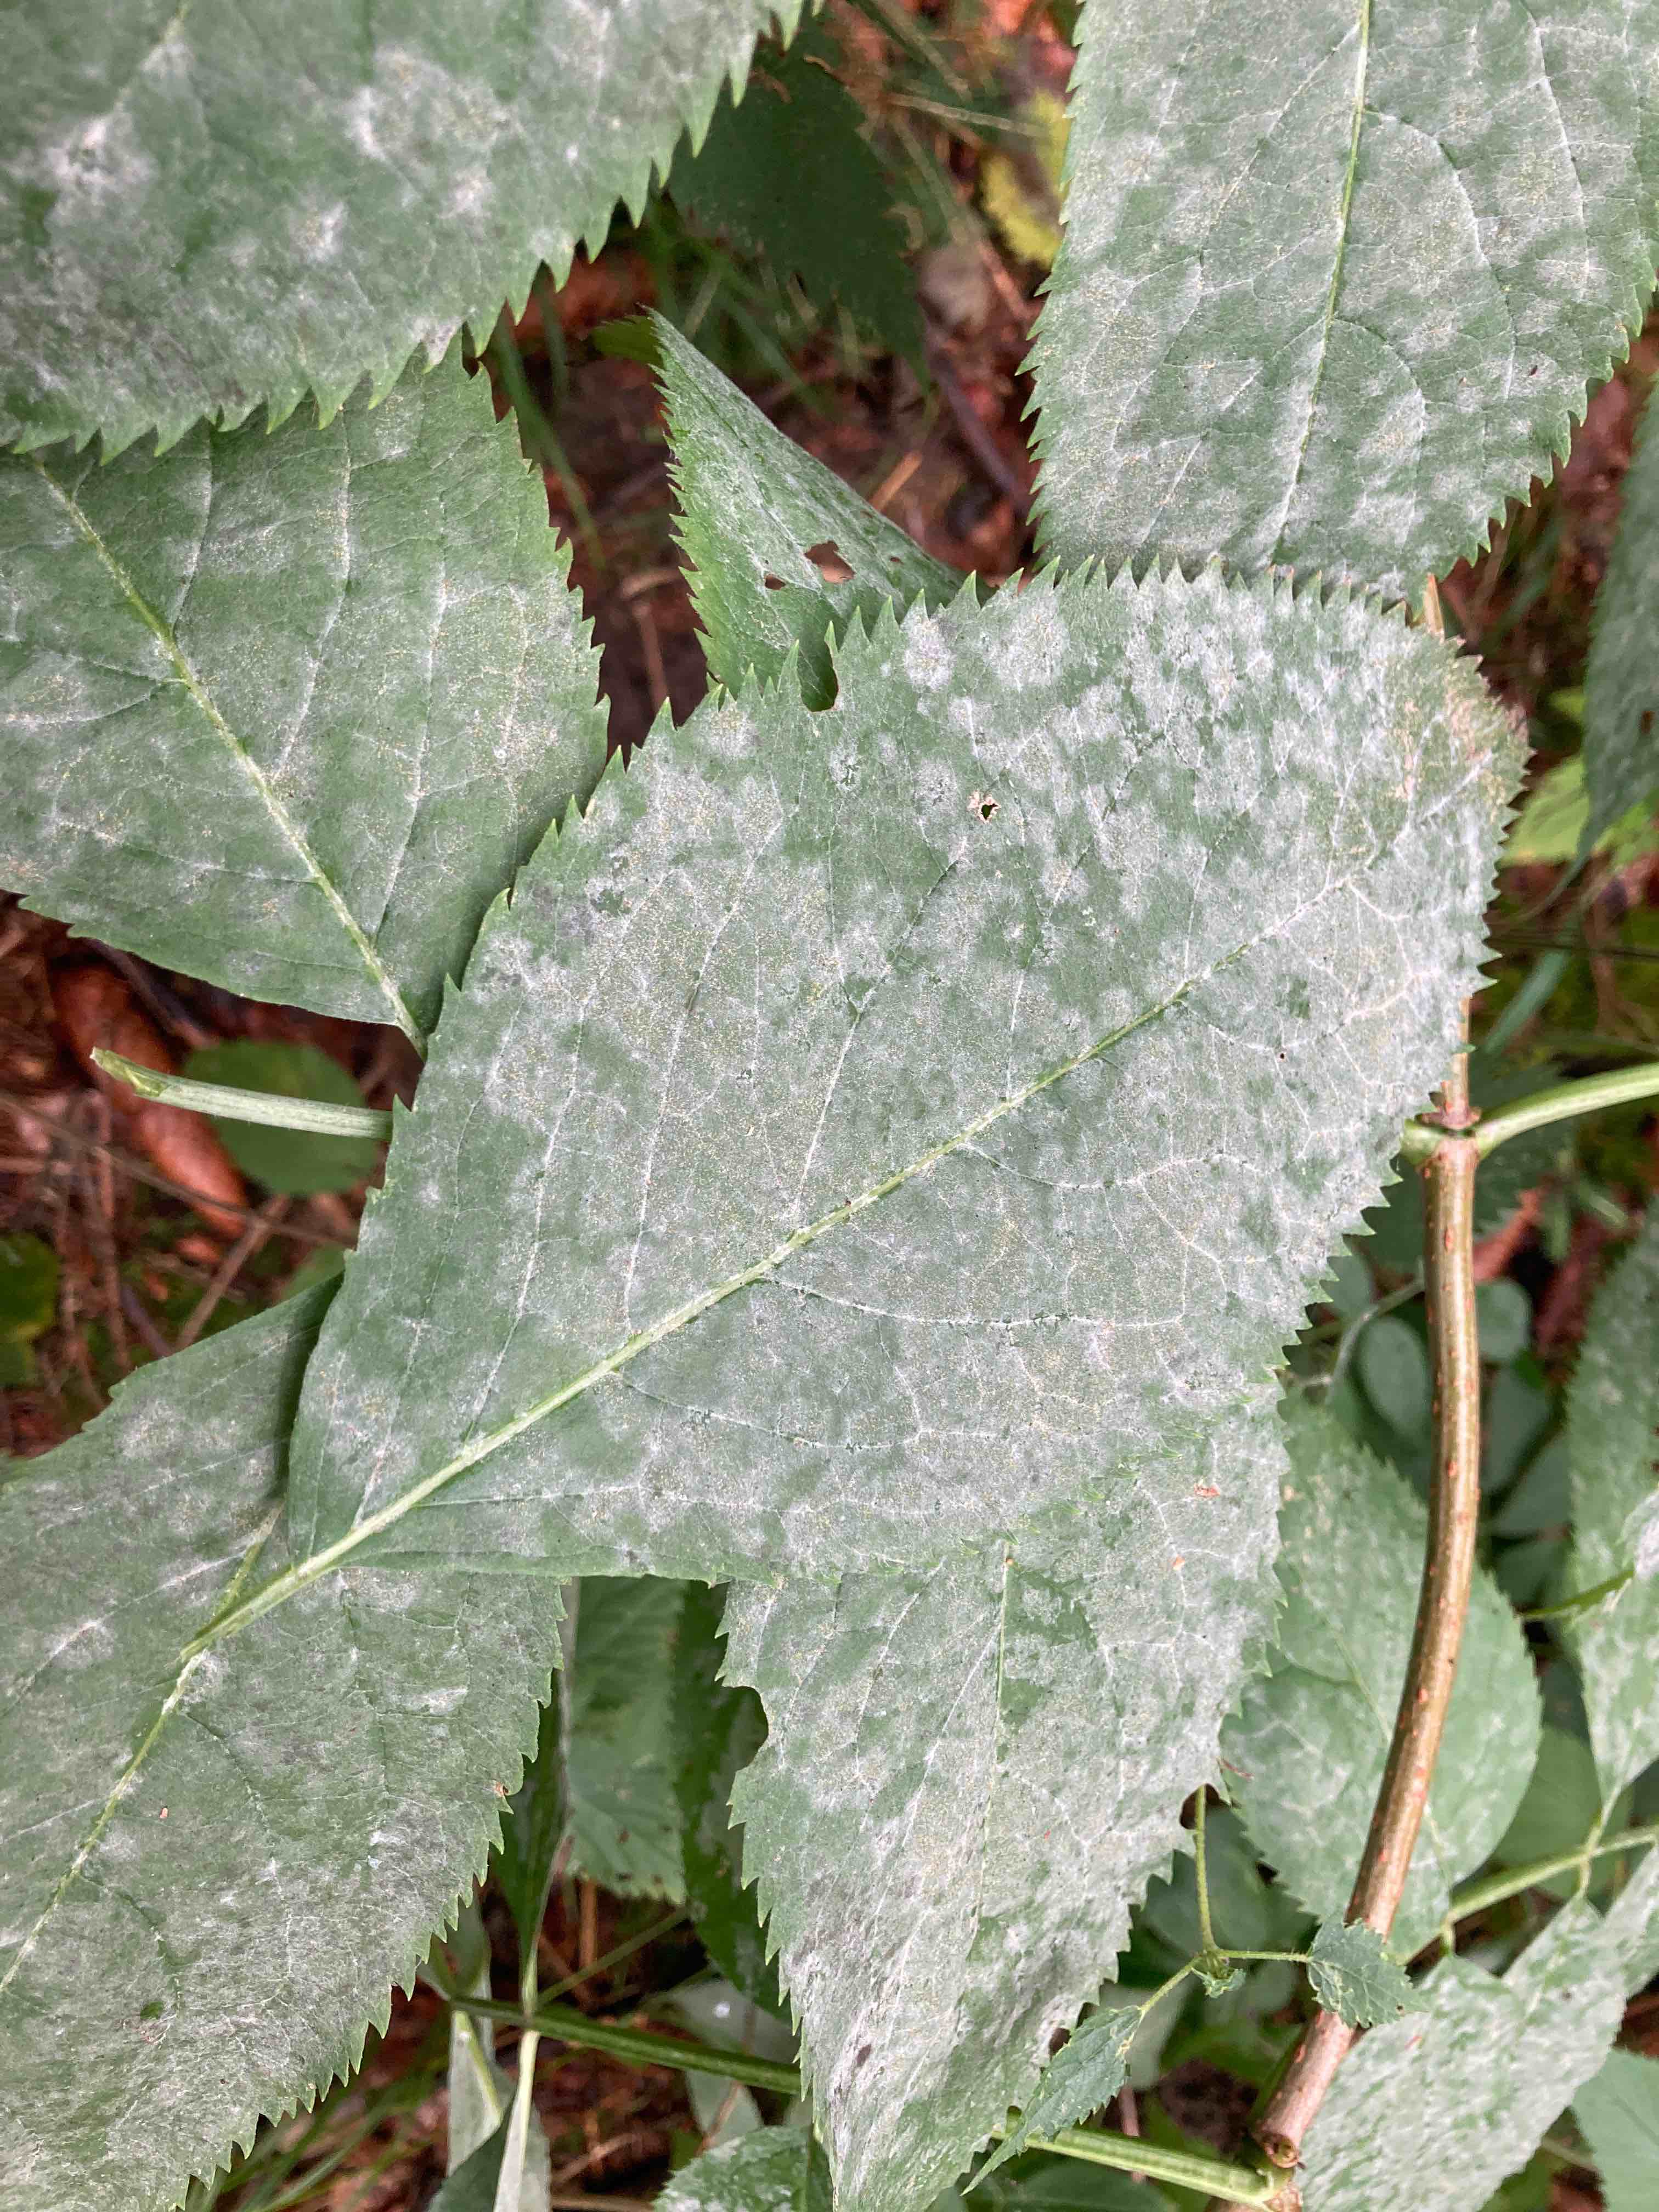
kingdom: Fungi
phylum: Ascomycota
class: Leotiomycetes
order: Helotiales
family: Erysiphaceae
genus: Erysiphe
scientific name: Erysiphe
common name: meldug
